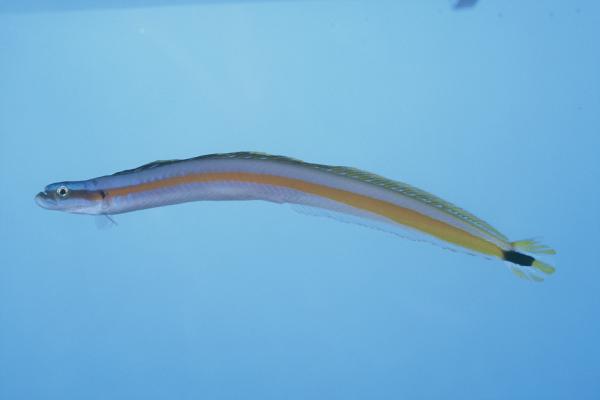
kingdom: Animalia
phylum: Chordata
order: Perciformes
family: Microdesmidae
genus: Gunnellichthys
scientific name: Gunnellichthys curiosus
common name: Curious wormfish
